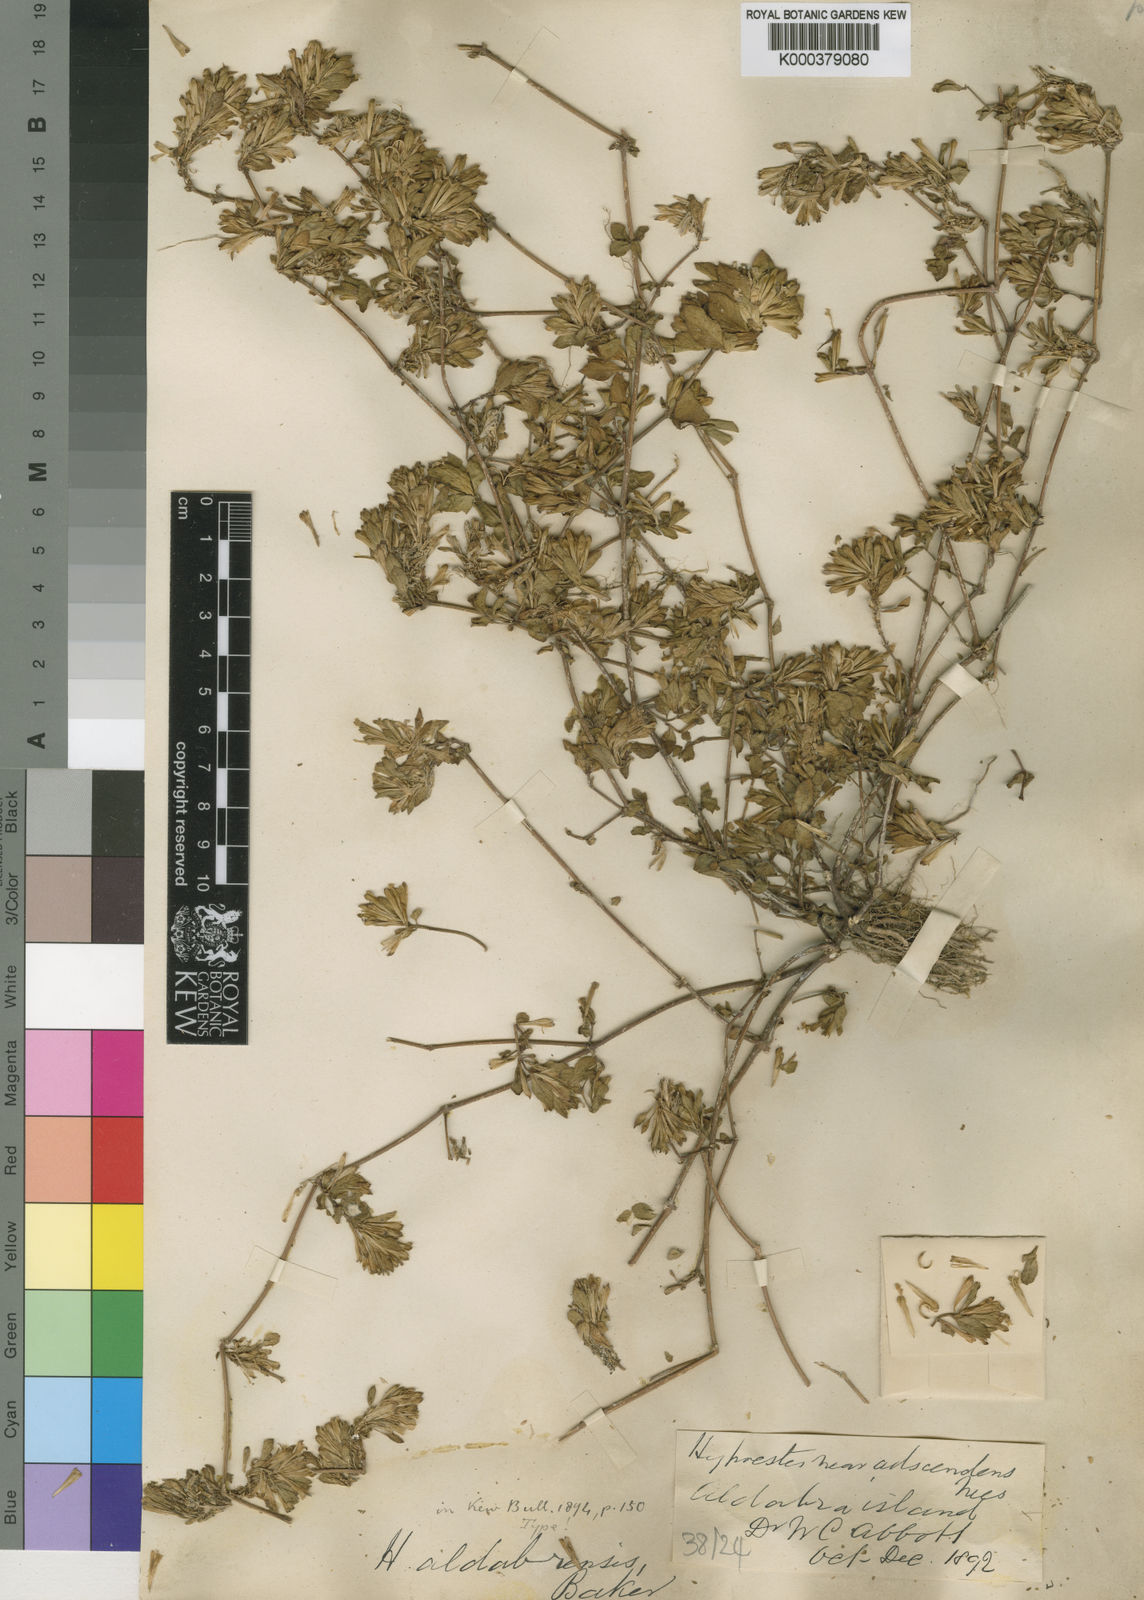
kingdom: Plantae
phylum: Tracheophyta
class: Magnoliopsida
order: Lamiales
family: Acanthaceae
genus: Hypoestes
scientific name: Hypoestes aldabrensis
